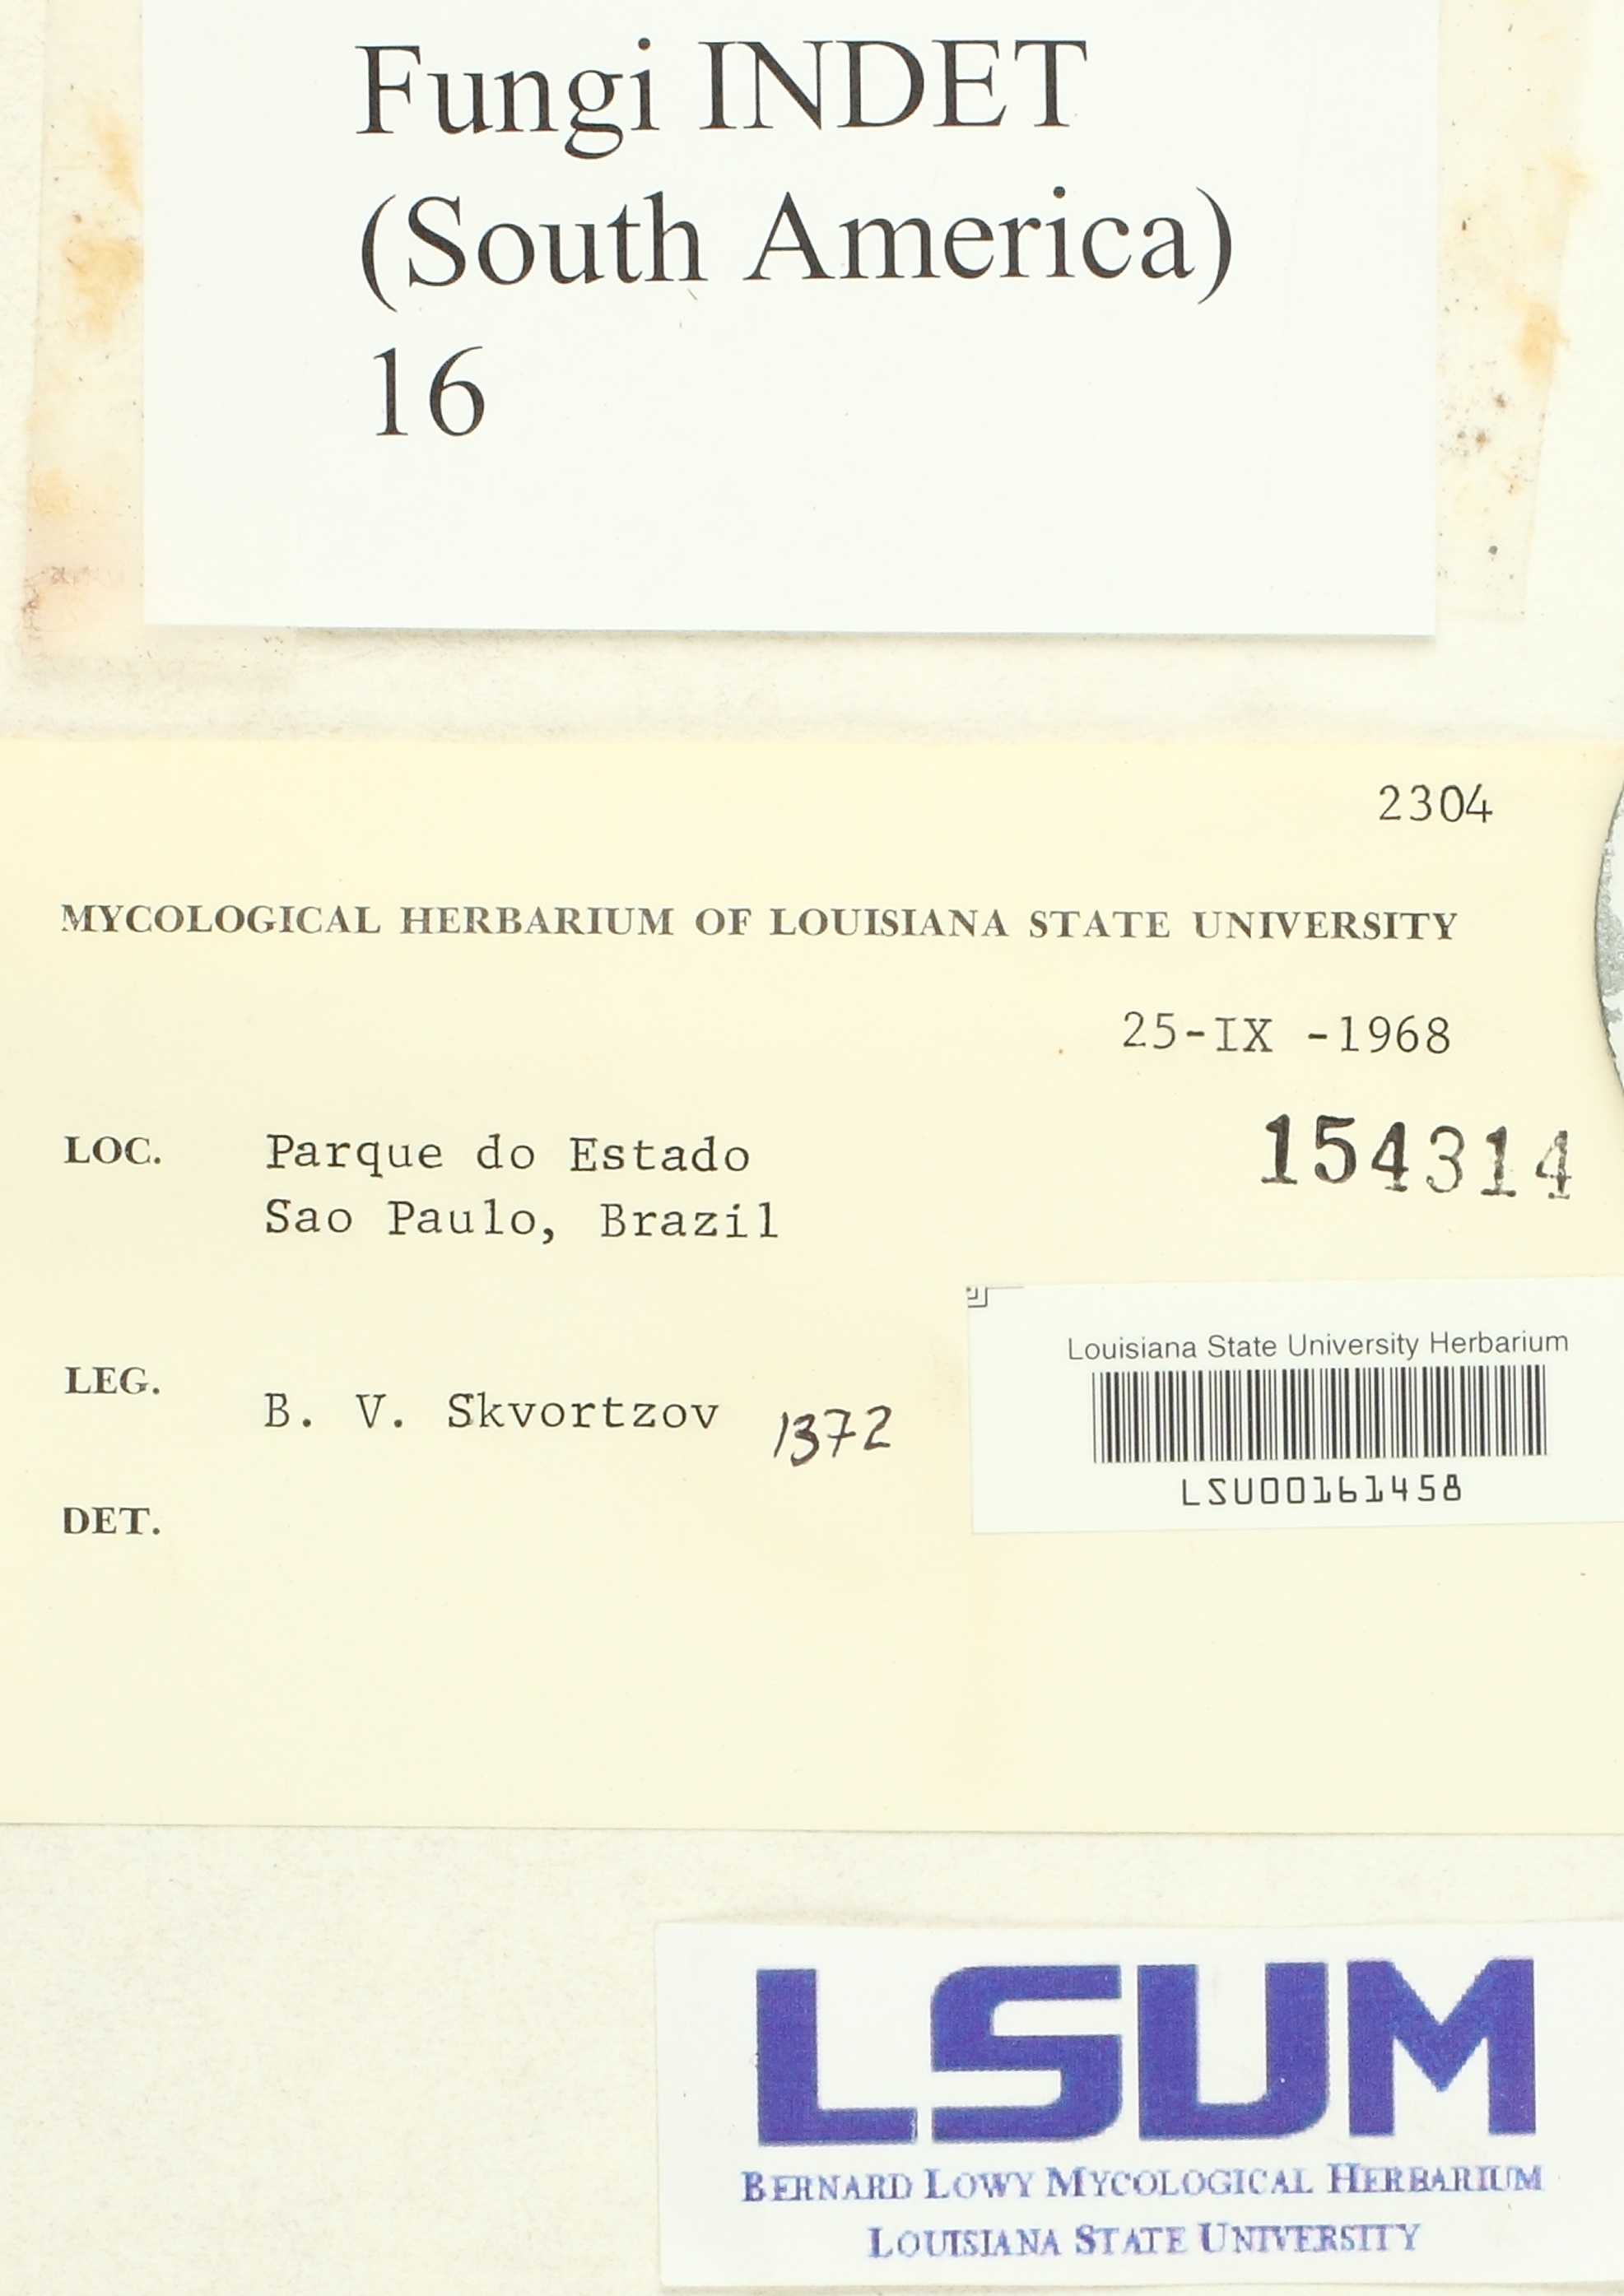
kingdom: Fungi
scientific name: Fungi
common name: Fungi
